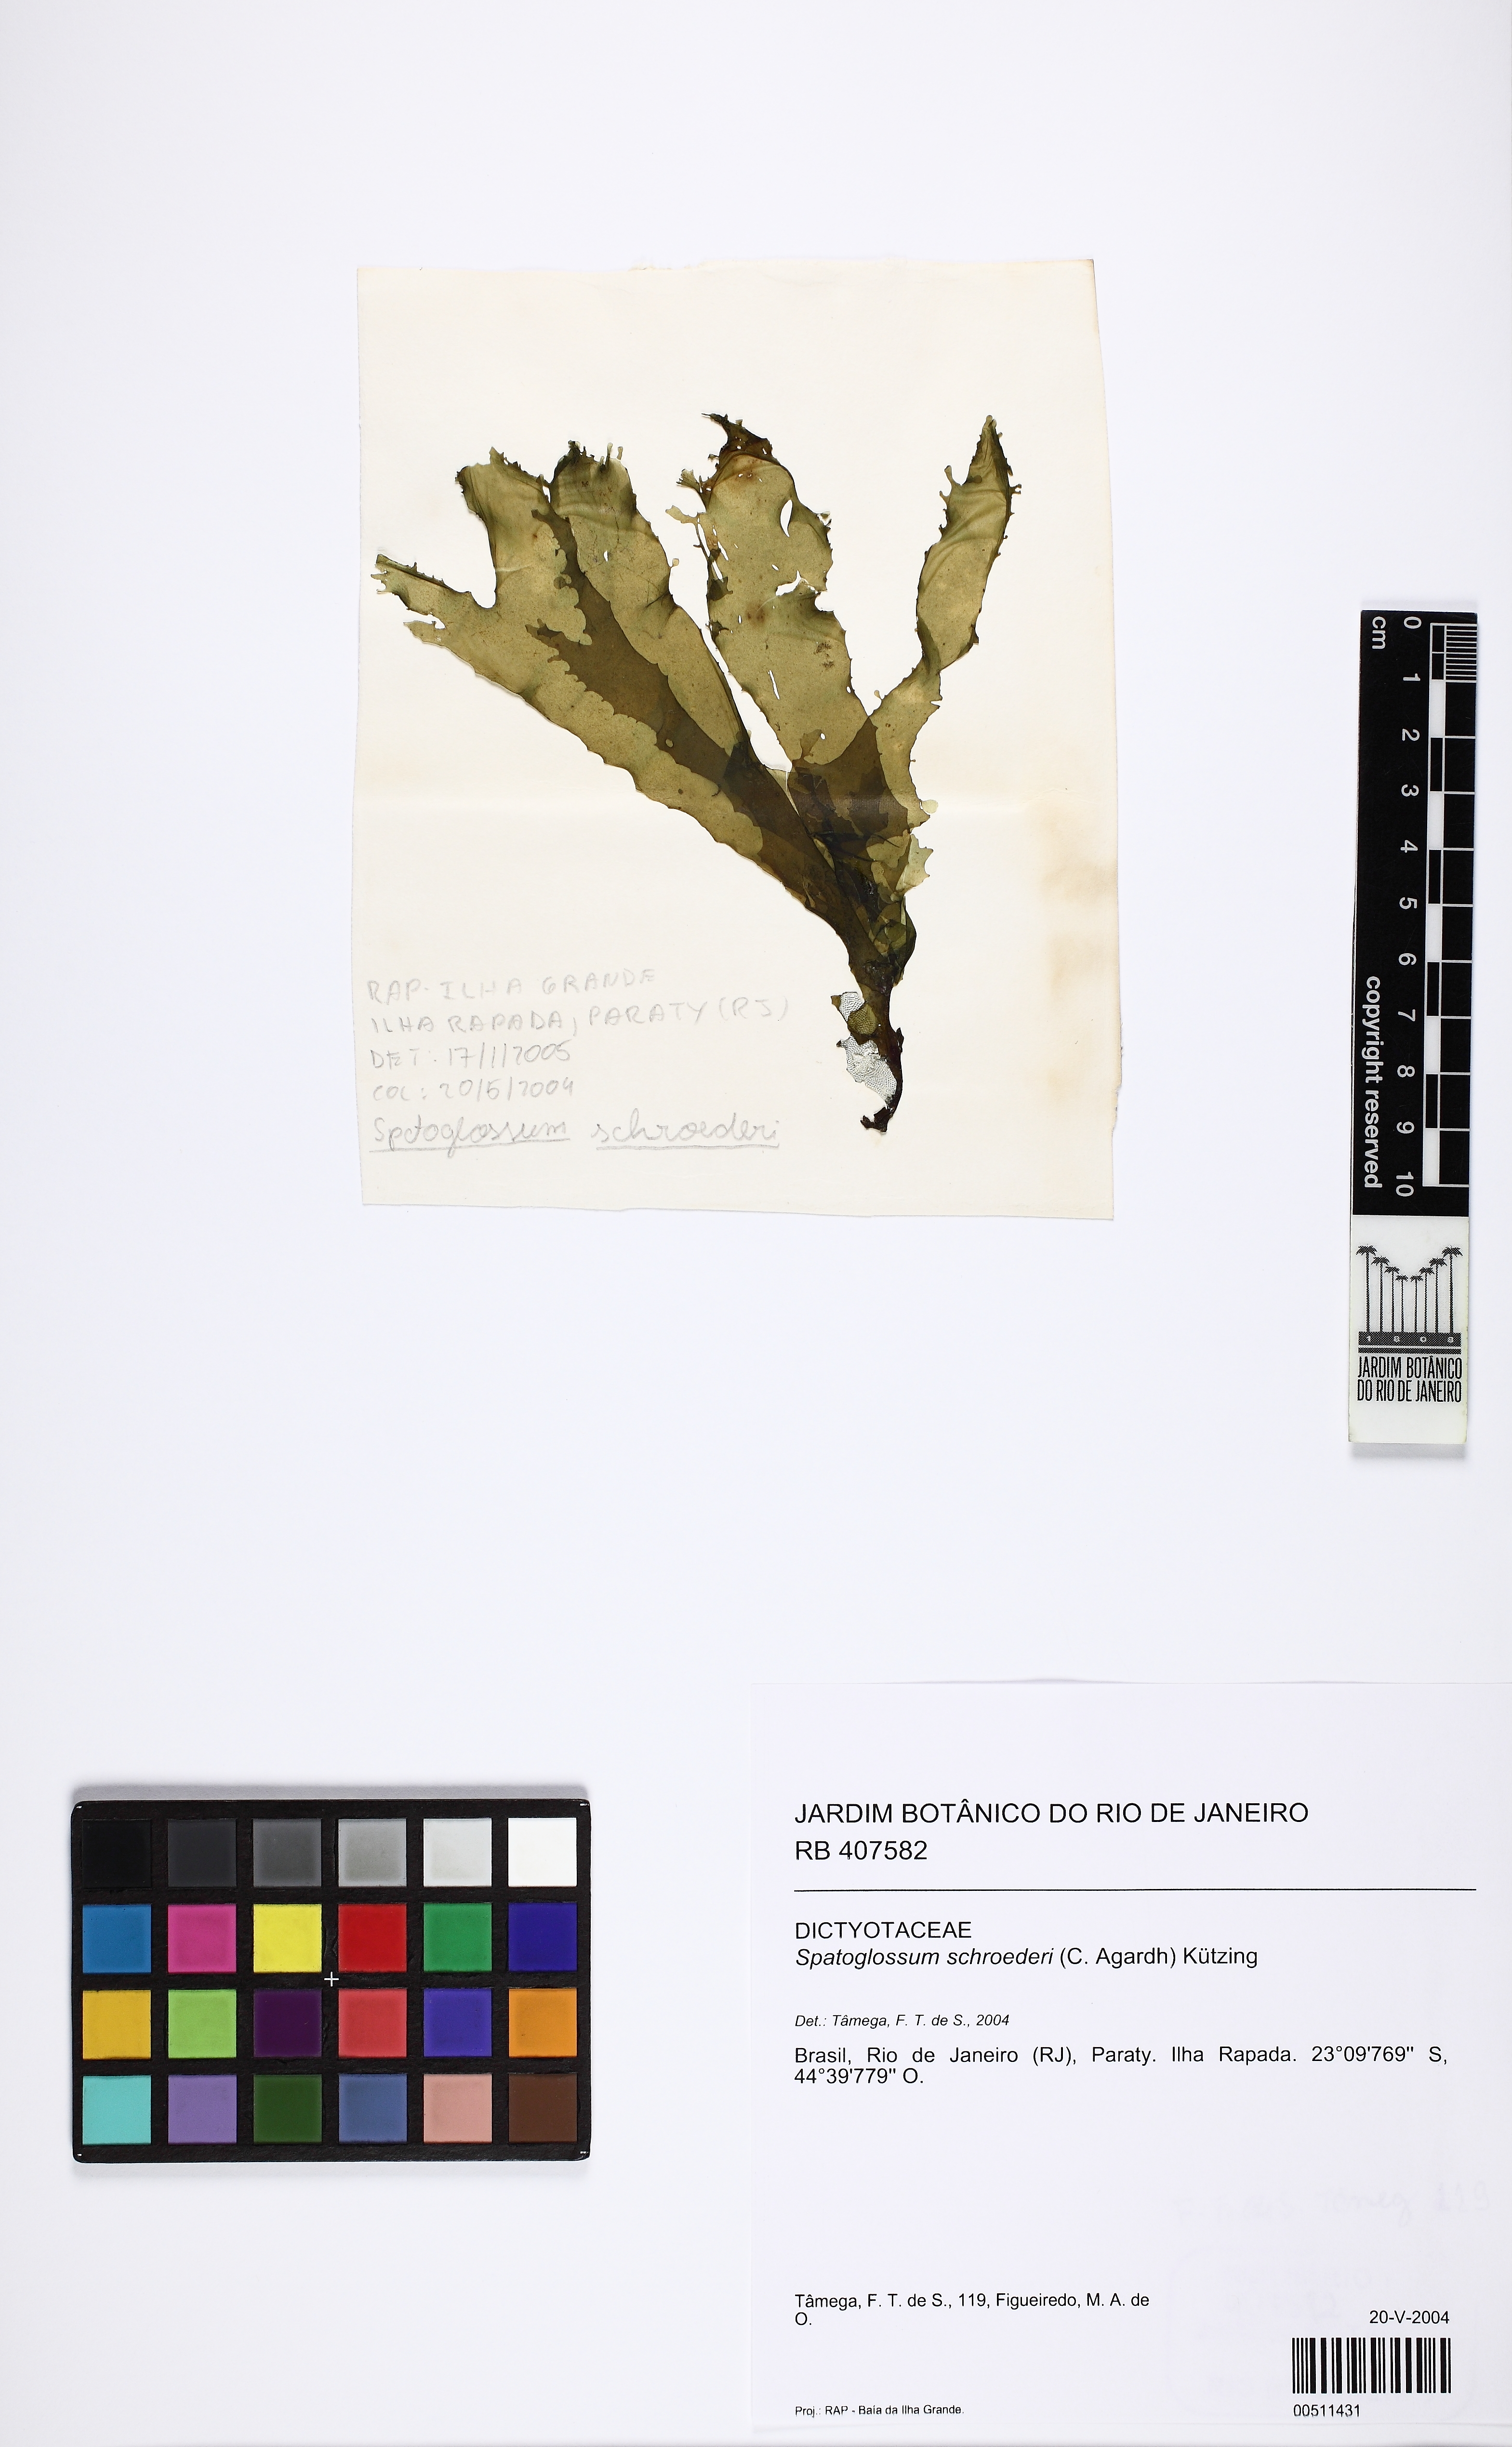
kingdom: Chromista
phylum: Ochrophyta
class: Phaeophyceae
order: Dictyotales
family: Dictyotaceae
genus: Spatoglossum
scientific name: Spatoglossum schroederi
